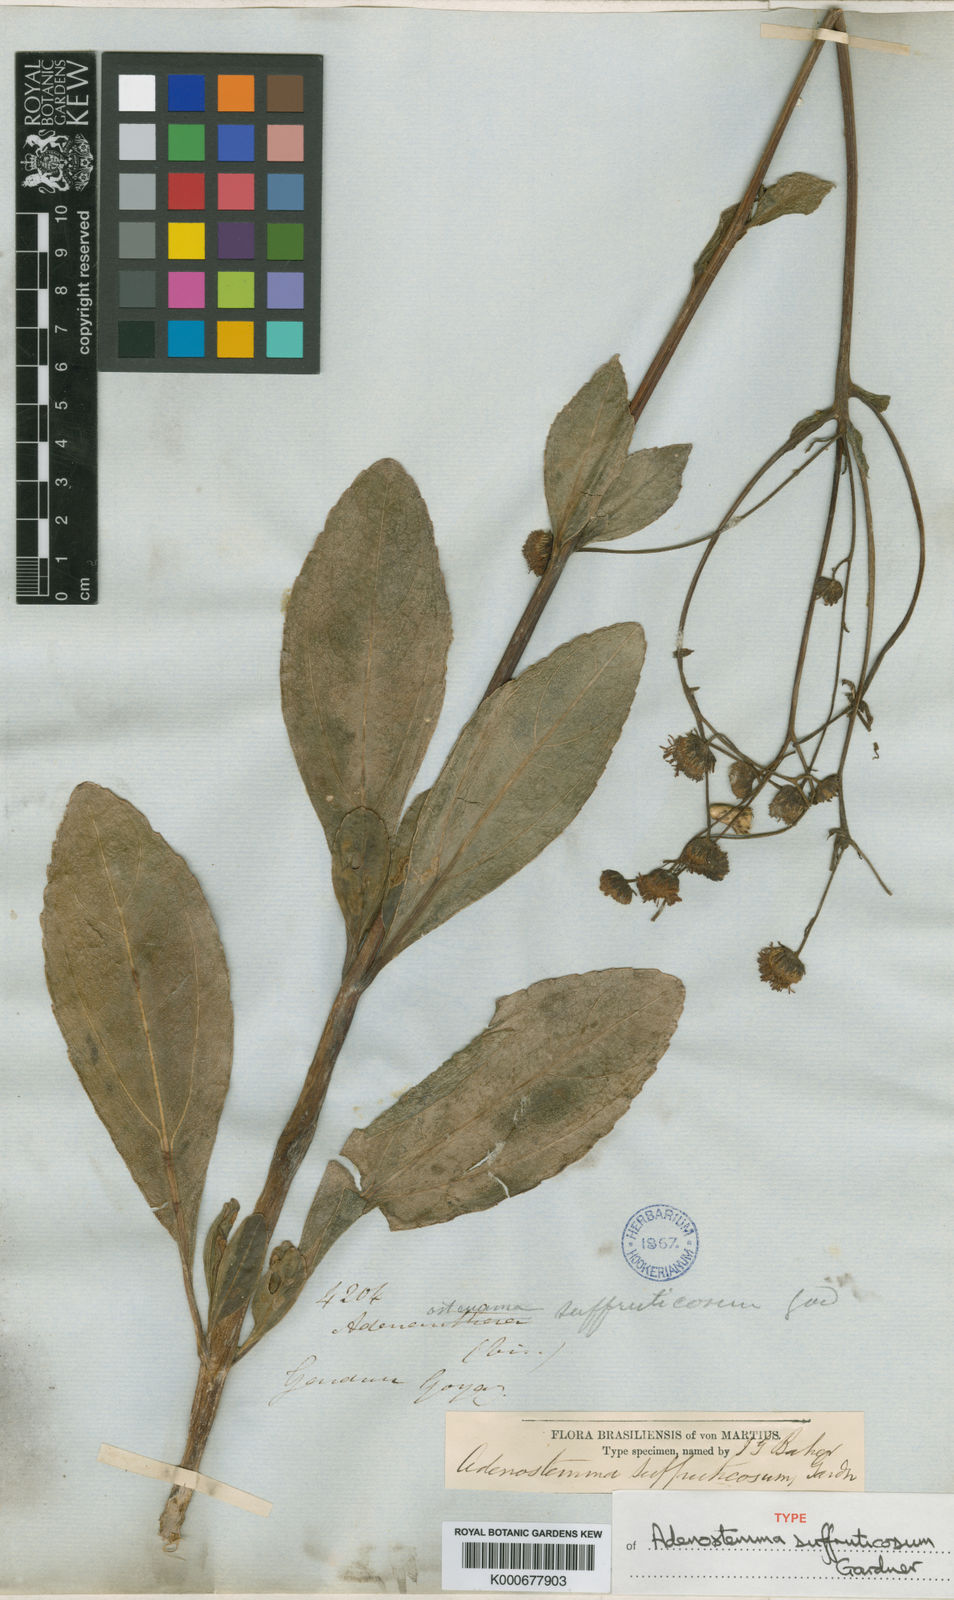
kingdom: Plantae
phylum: Tracheophyta
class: Magnoliopsida
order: Asterales
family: Asteraceae
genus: Adenostemma
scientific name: Adenostemma suffruticosum
